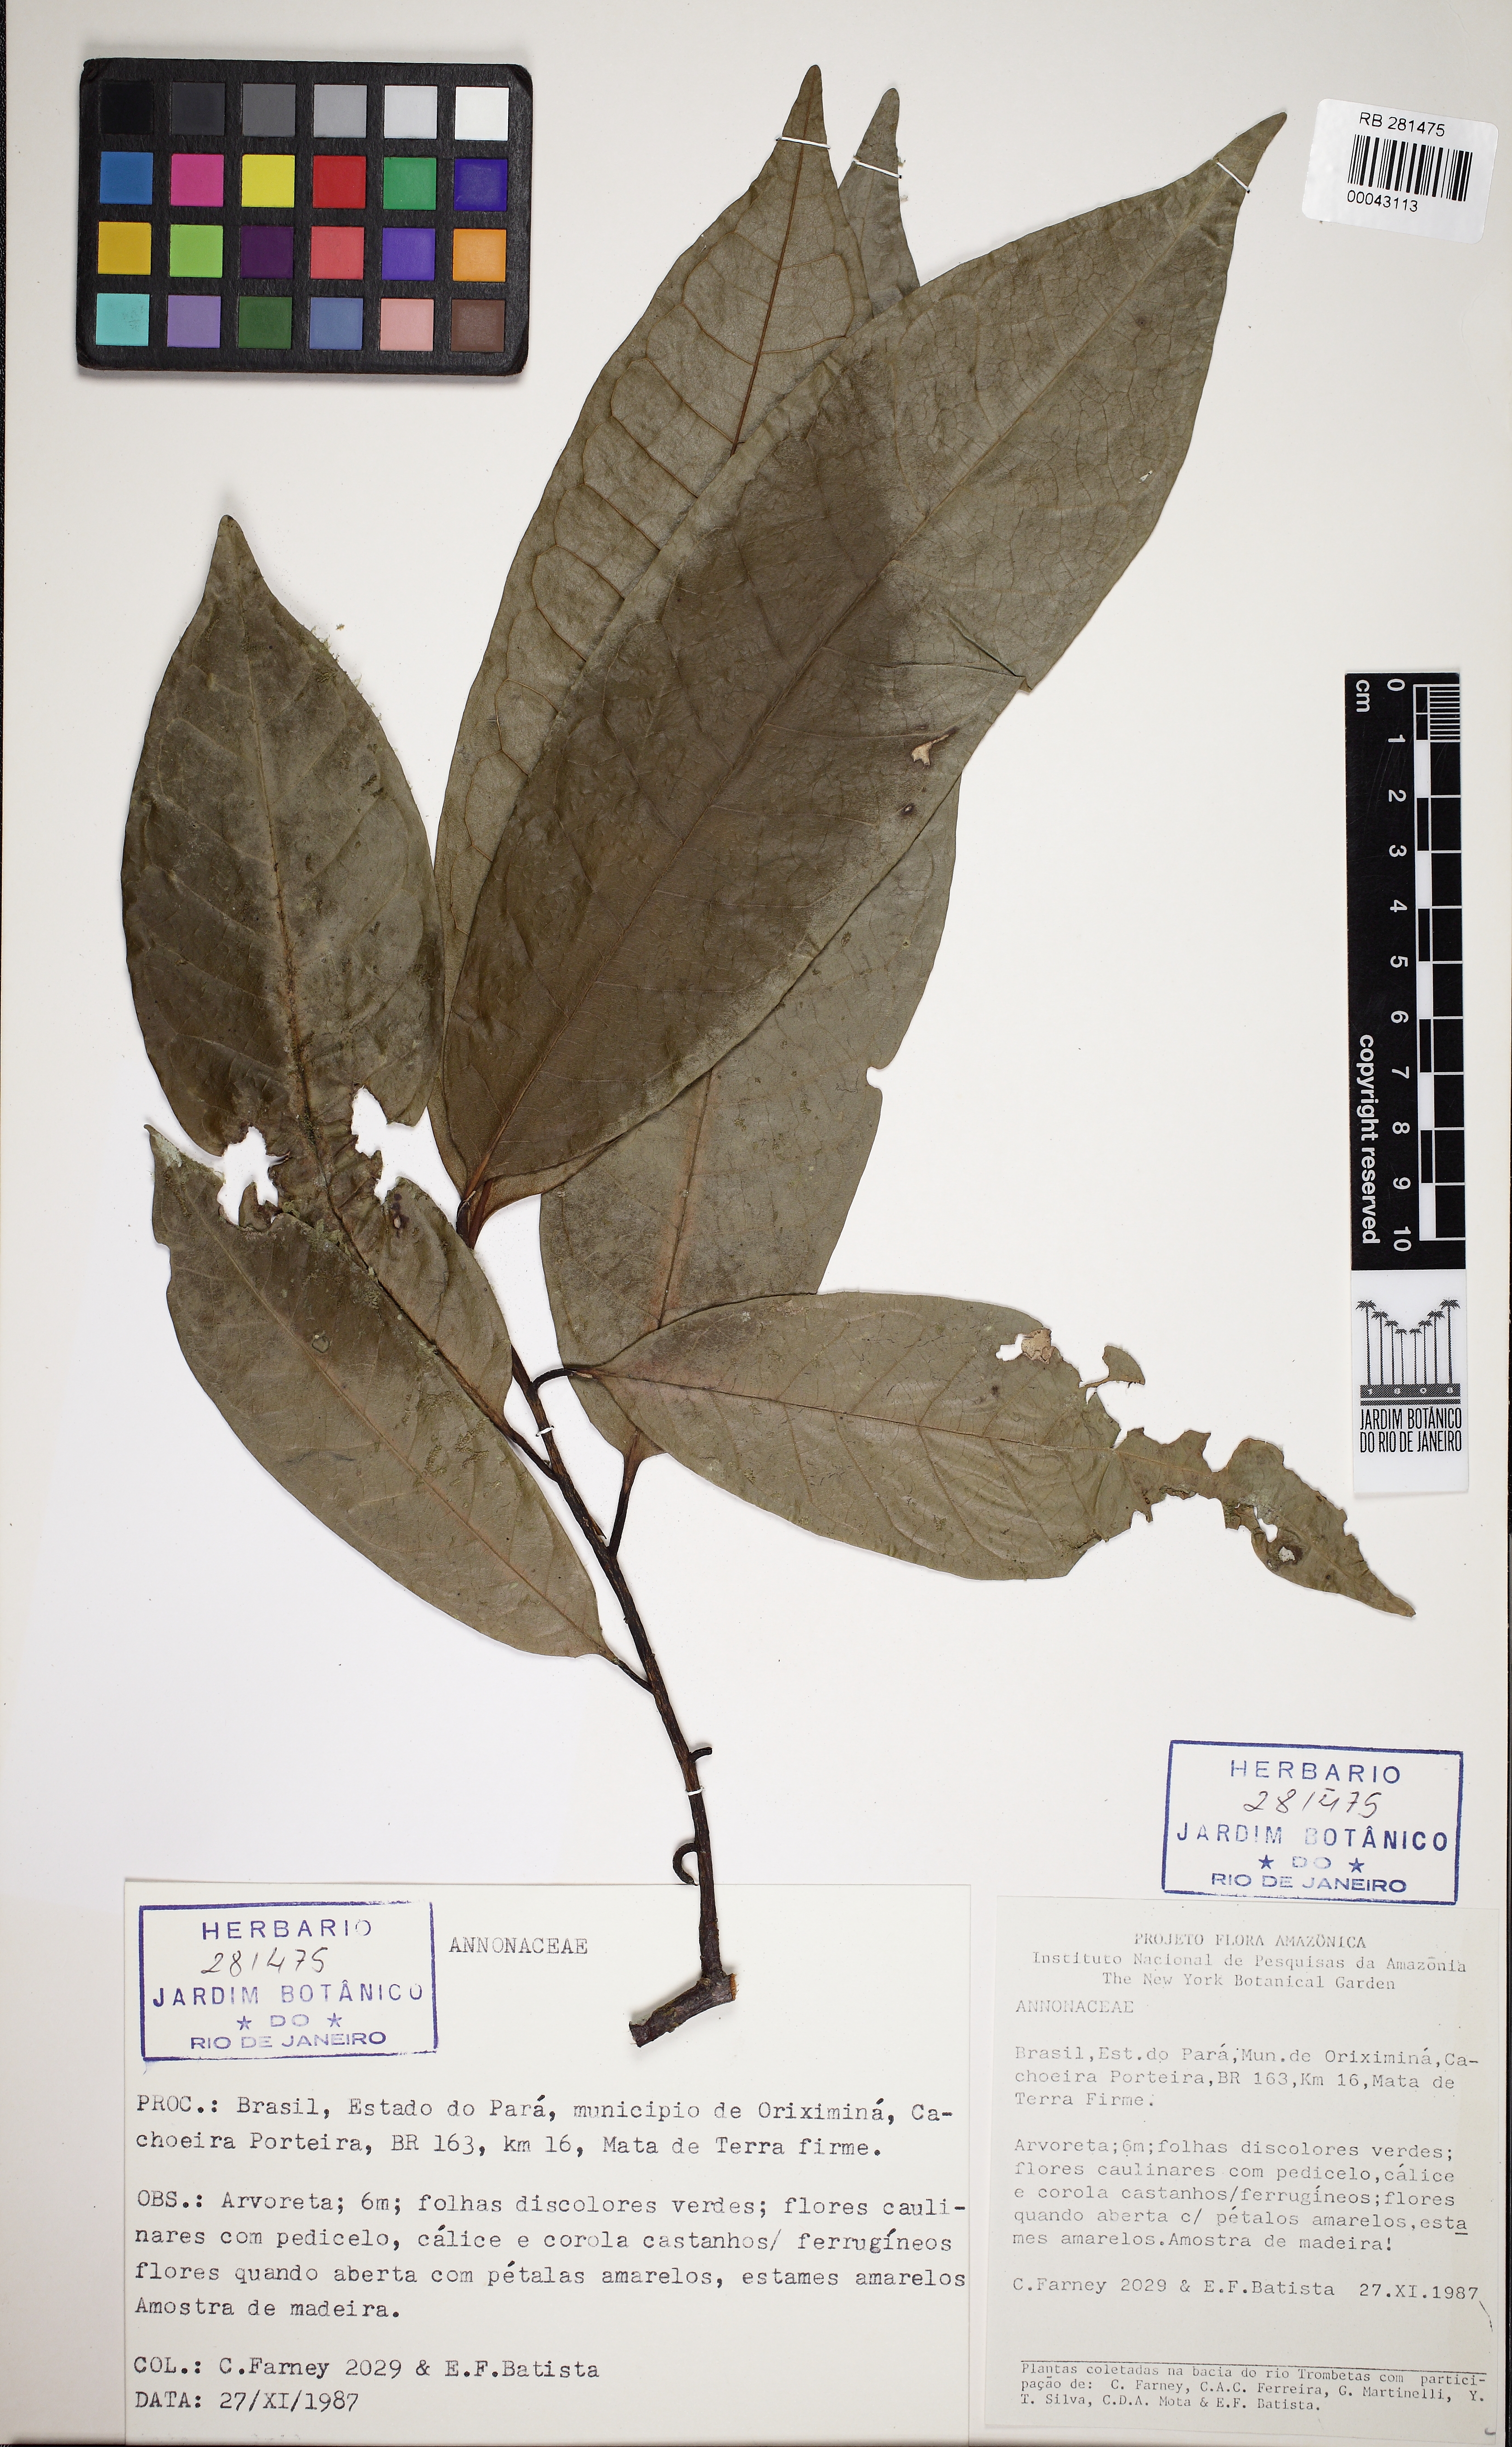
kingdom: Plantae
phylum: Tracheophyta
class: Magnoliopsida
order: Magnoliales
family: Annonaceae
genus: Xylopia
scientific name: Xylopia
